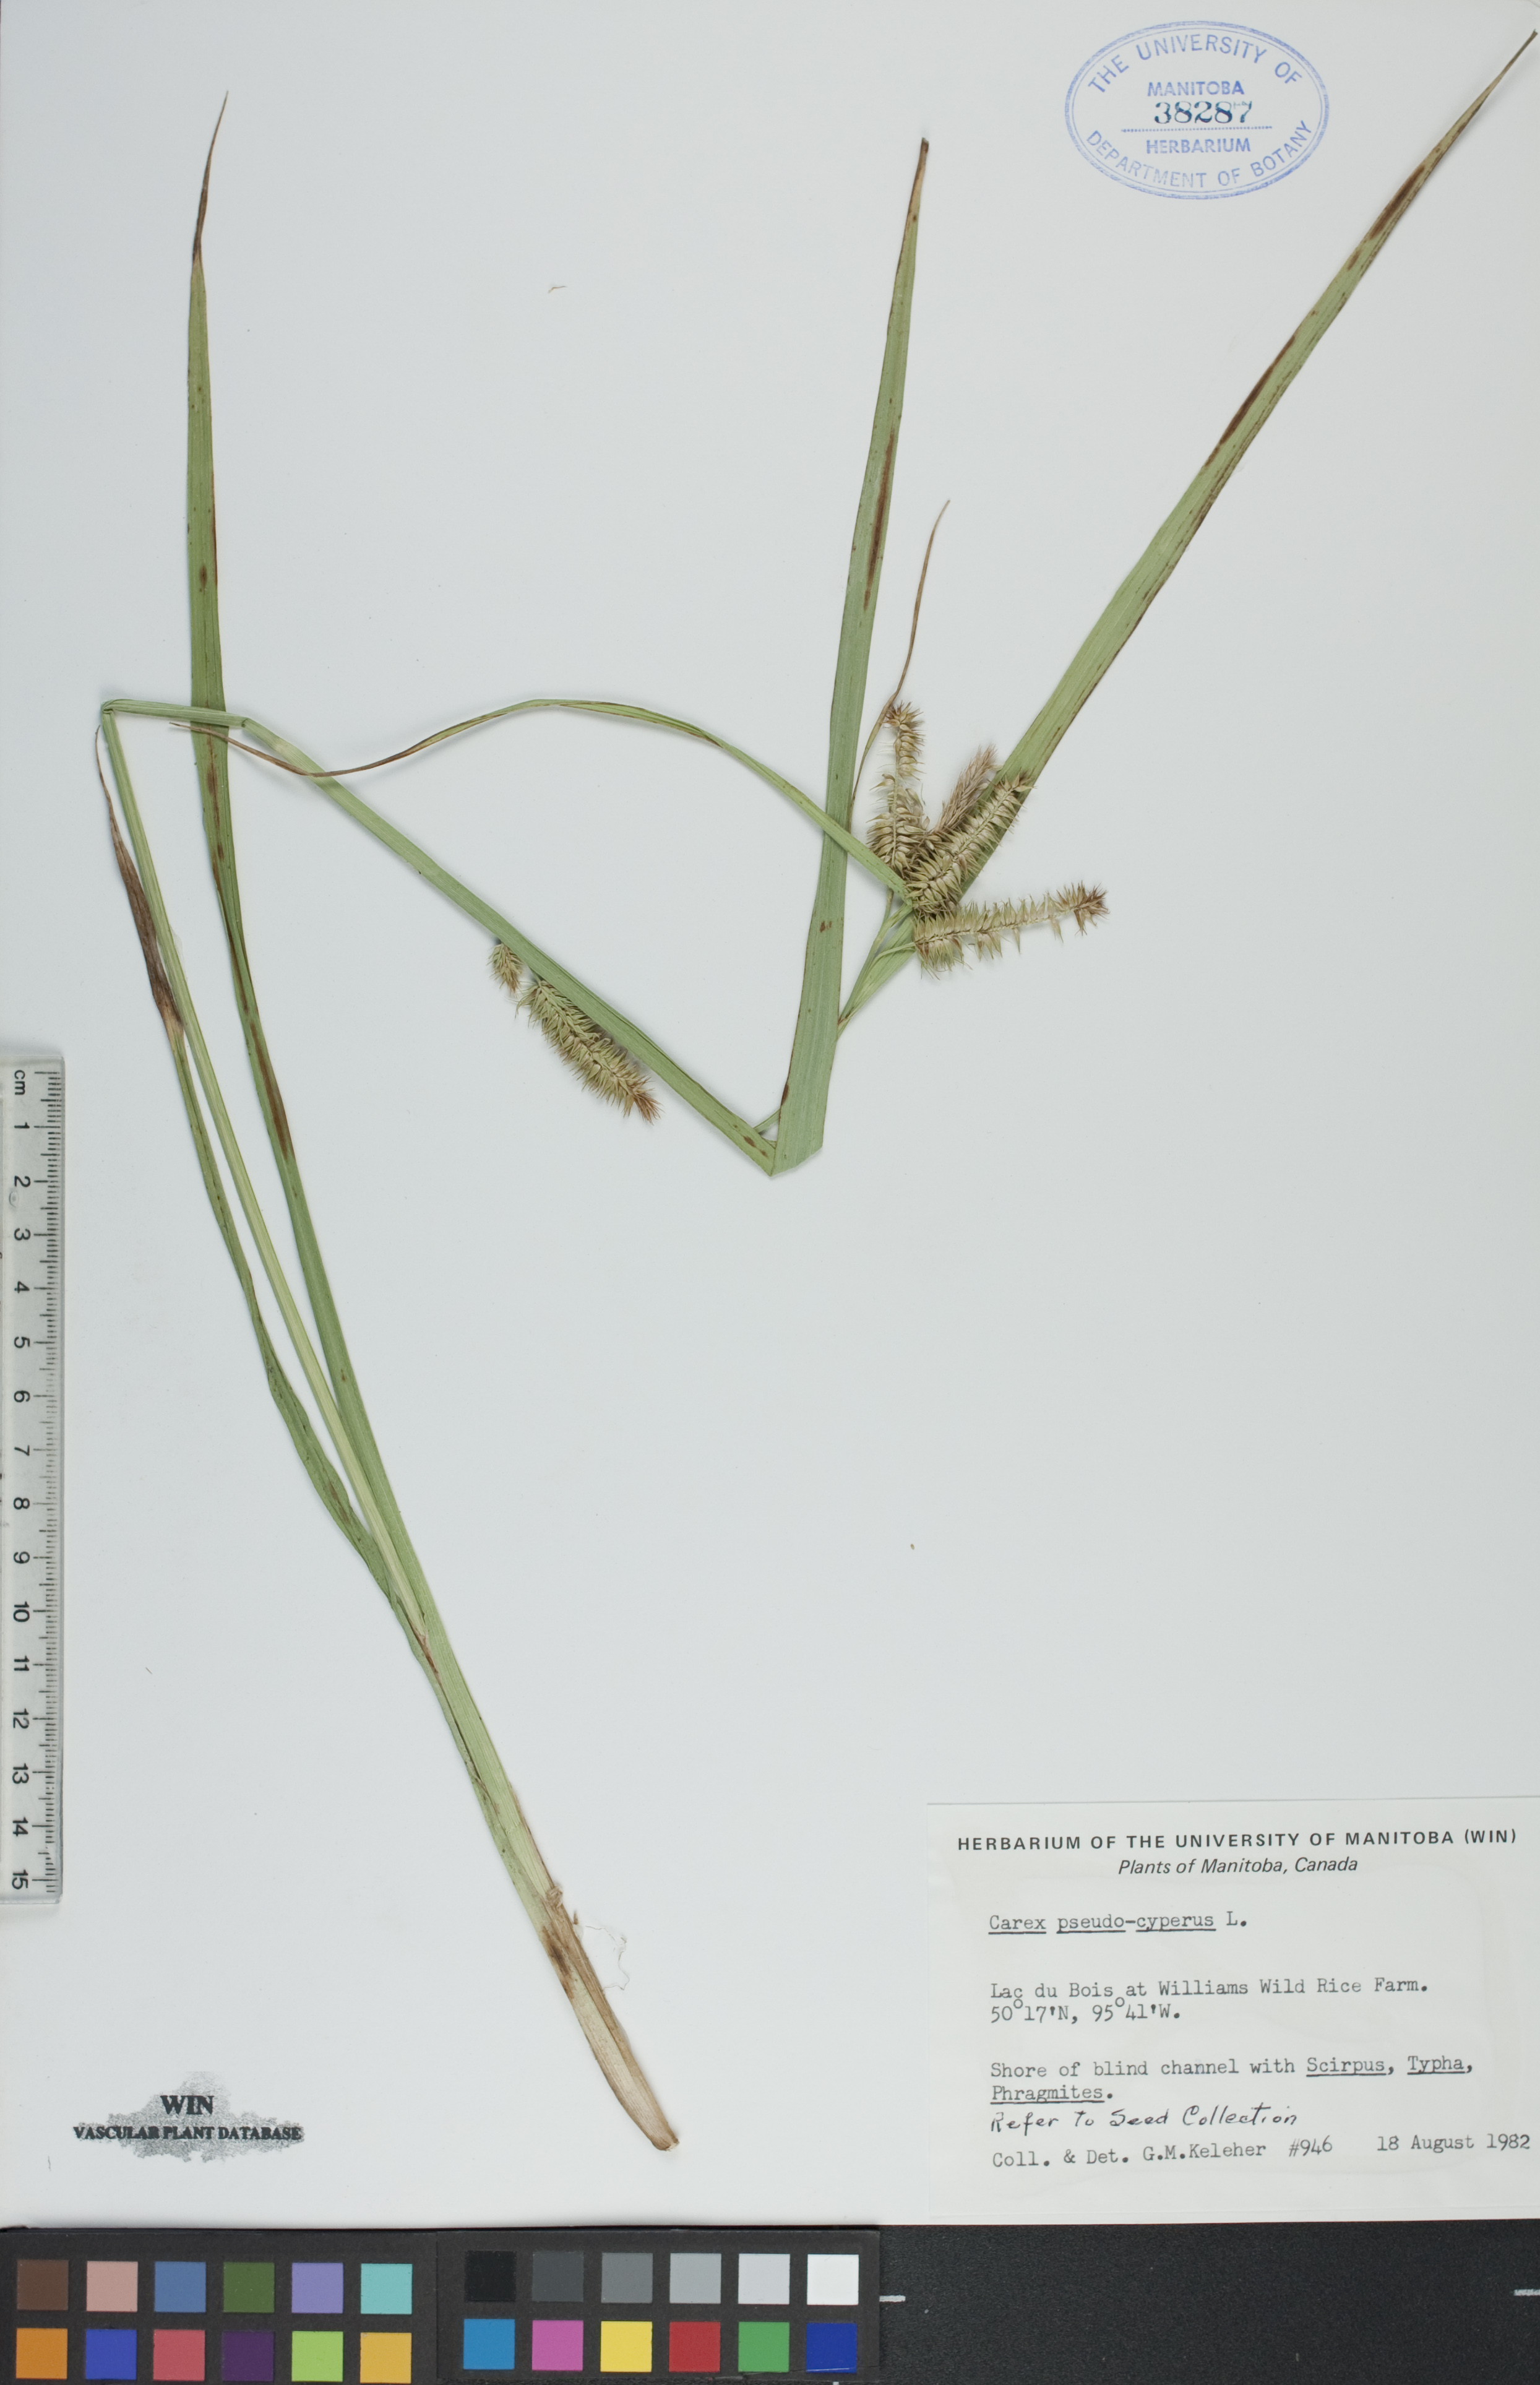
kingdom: Plantae
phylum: Tracheophyta
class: Liliopsida
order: Poales
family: Cyperaceae
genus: Carex
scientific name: Carex pseudocyperus
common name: Cyperus sedge
